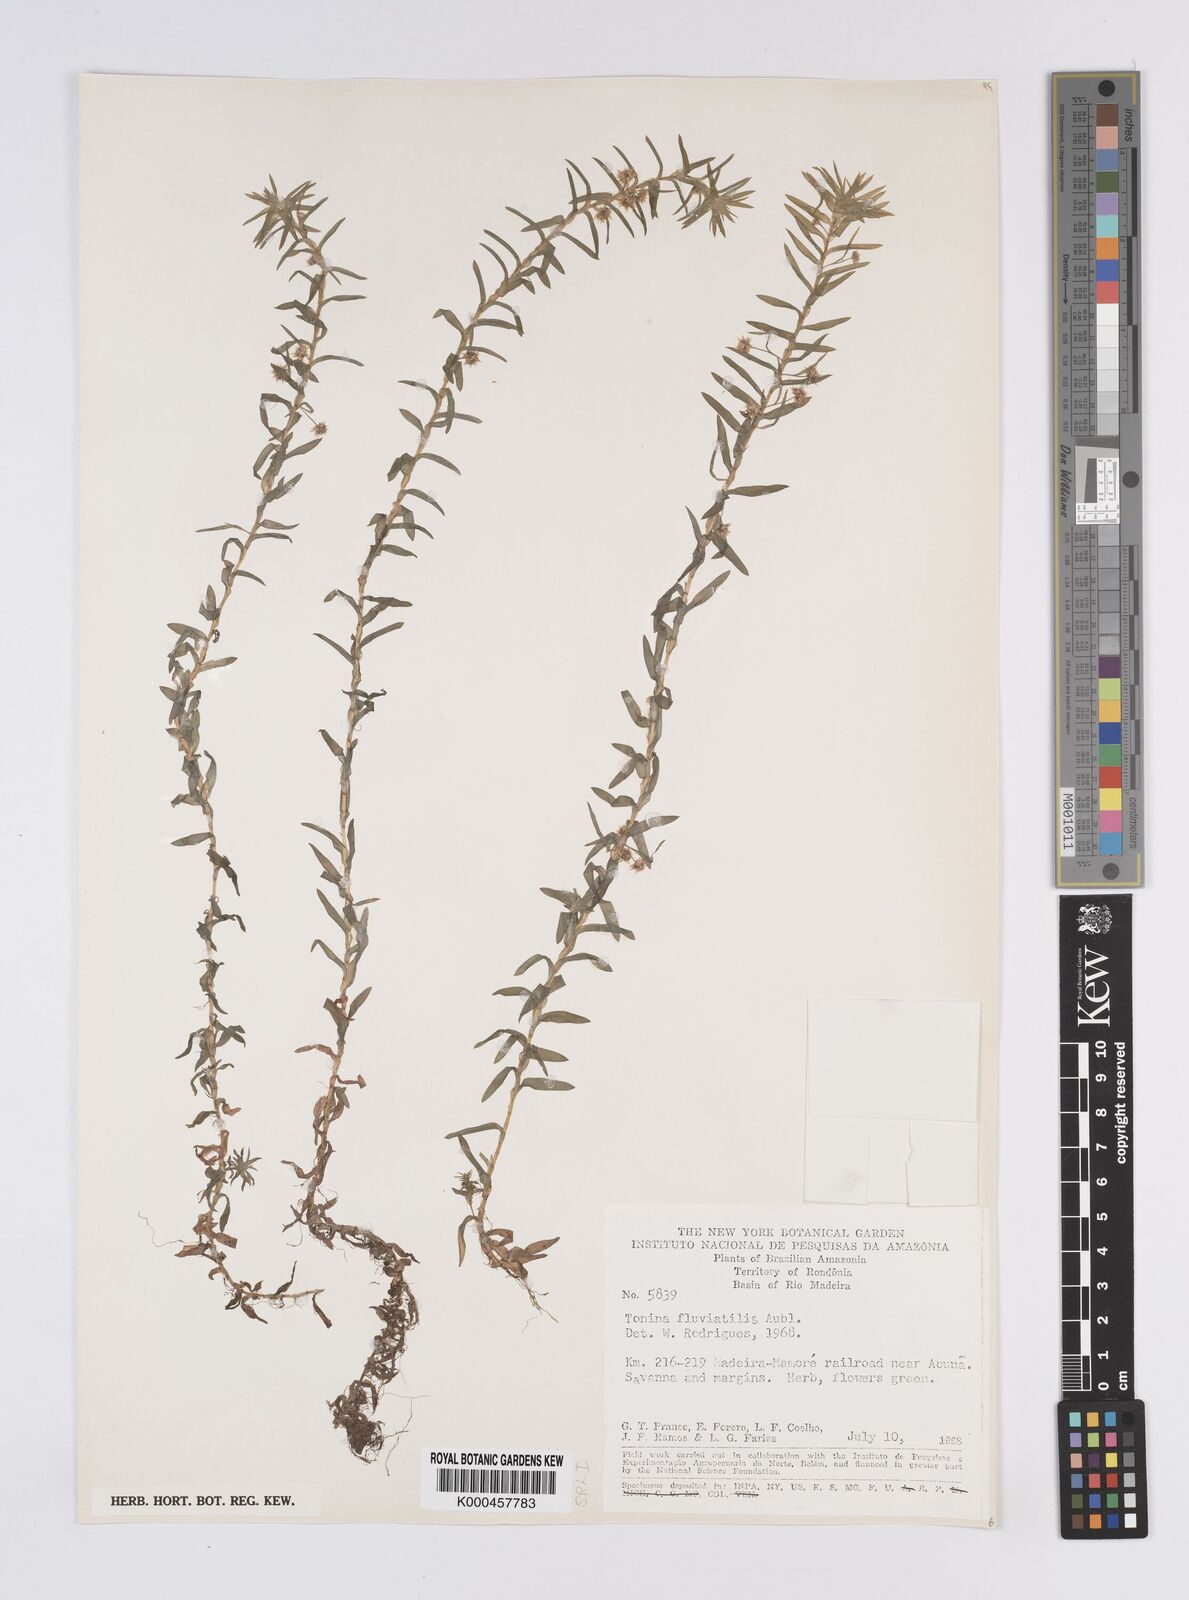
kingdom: Plantae
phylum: Tracheophyta
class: Liliopsida
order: Poales
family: Eriocaulaceae
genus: Paepalanthus
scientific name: Paepalanthus fluviatilis
